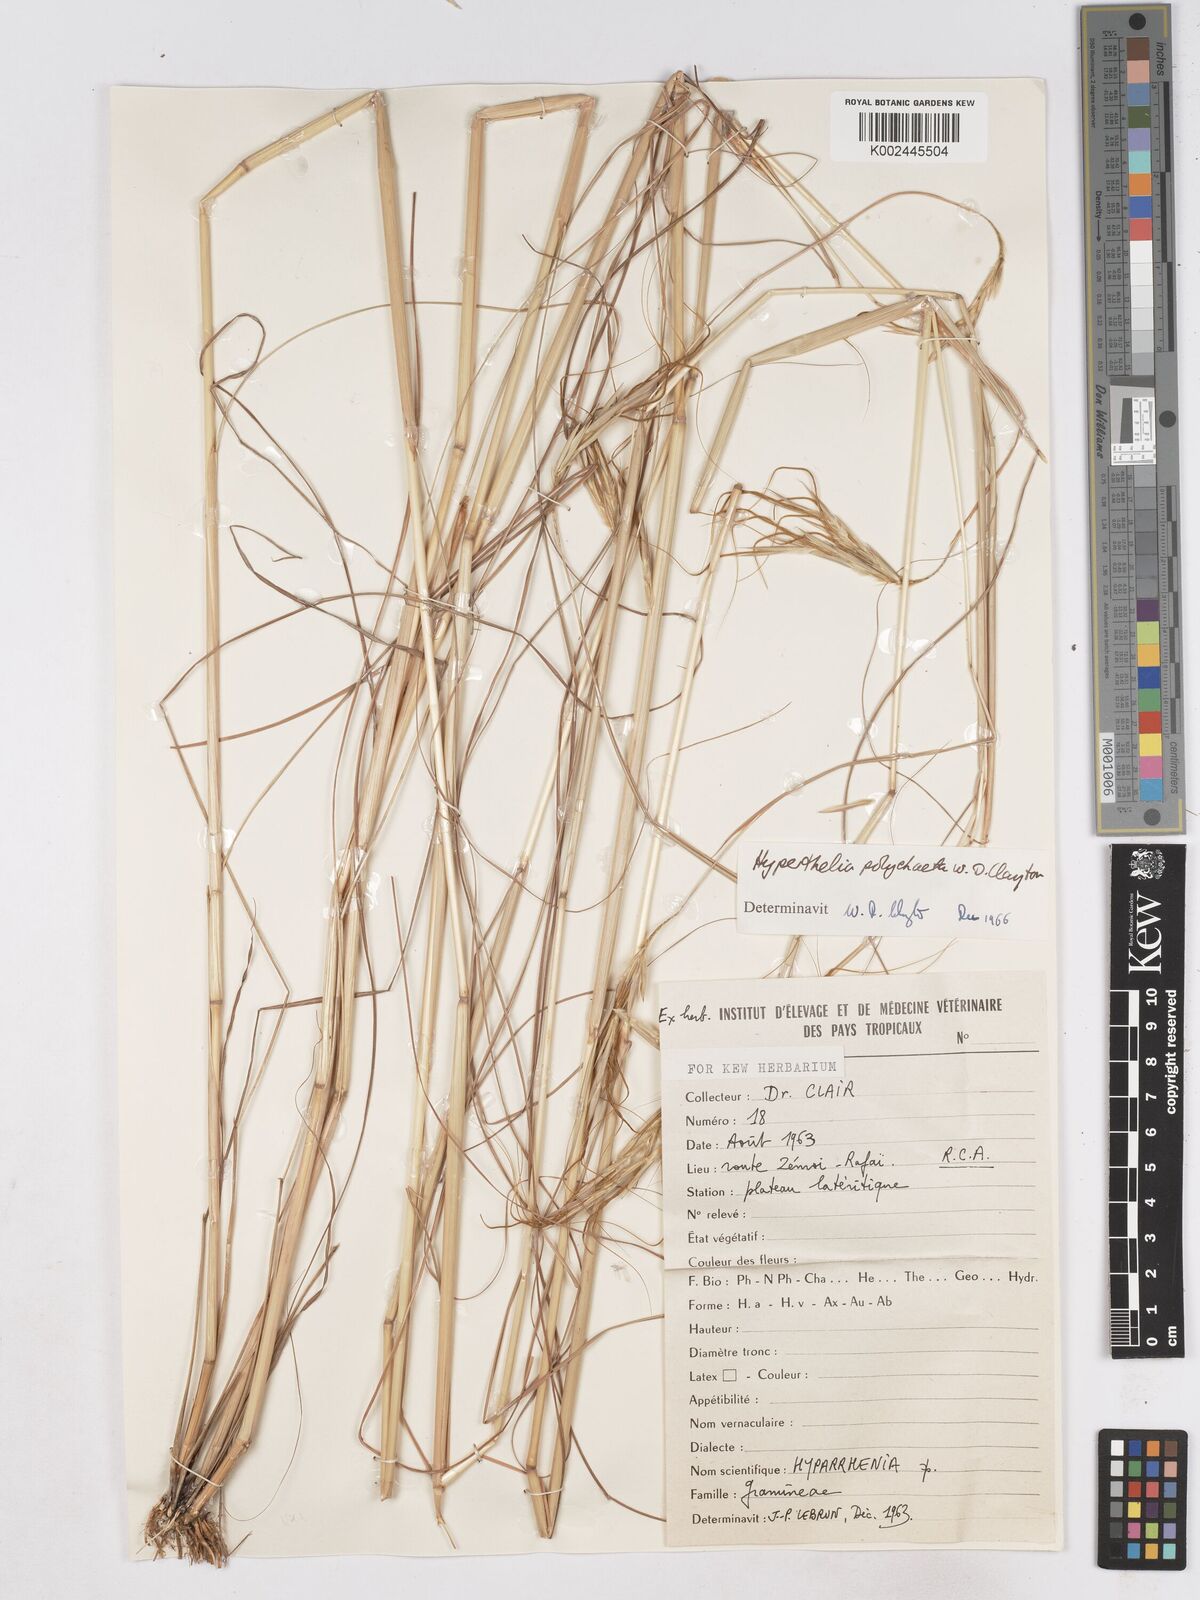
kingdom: Plantae
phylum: Tracheophyta
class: Liliopsida
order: Poales
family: Poaceae
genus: Hyperthelia
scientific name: Hyperthelia polychaeta
